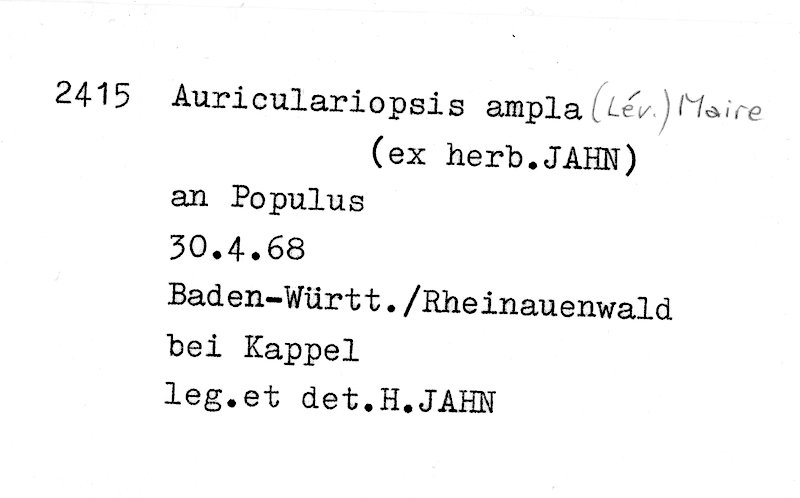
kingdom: Fungi
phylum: Basidiomycota
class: Agaricomycetes
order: Agaricales
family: Schizophyllaceae
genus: Schizophyllum
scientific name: Schizophyllum amplum
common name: Poplar bells
